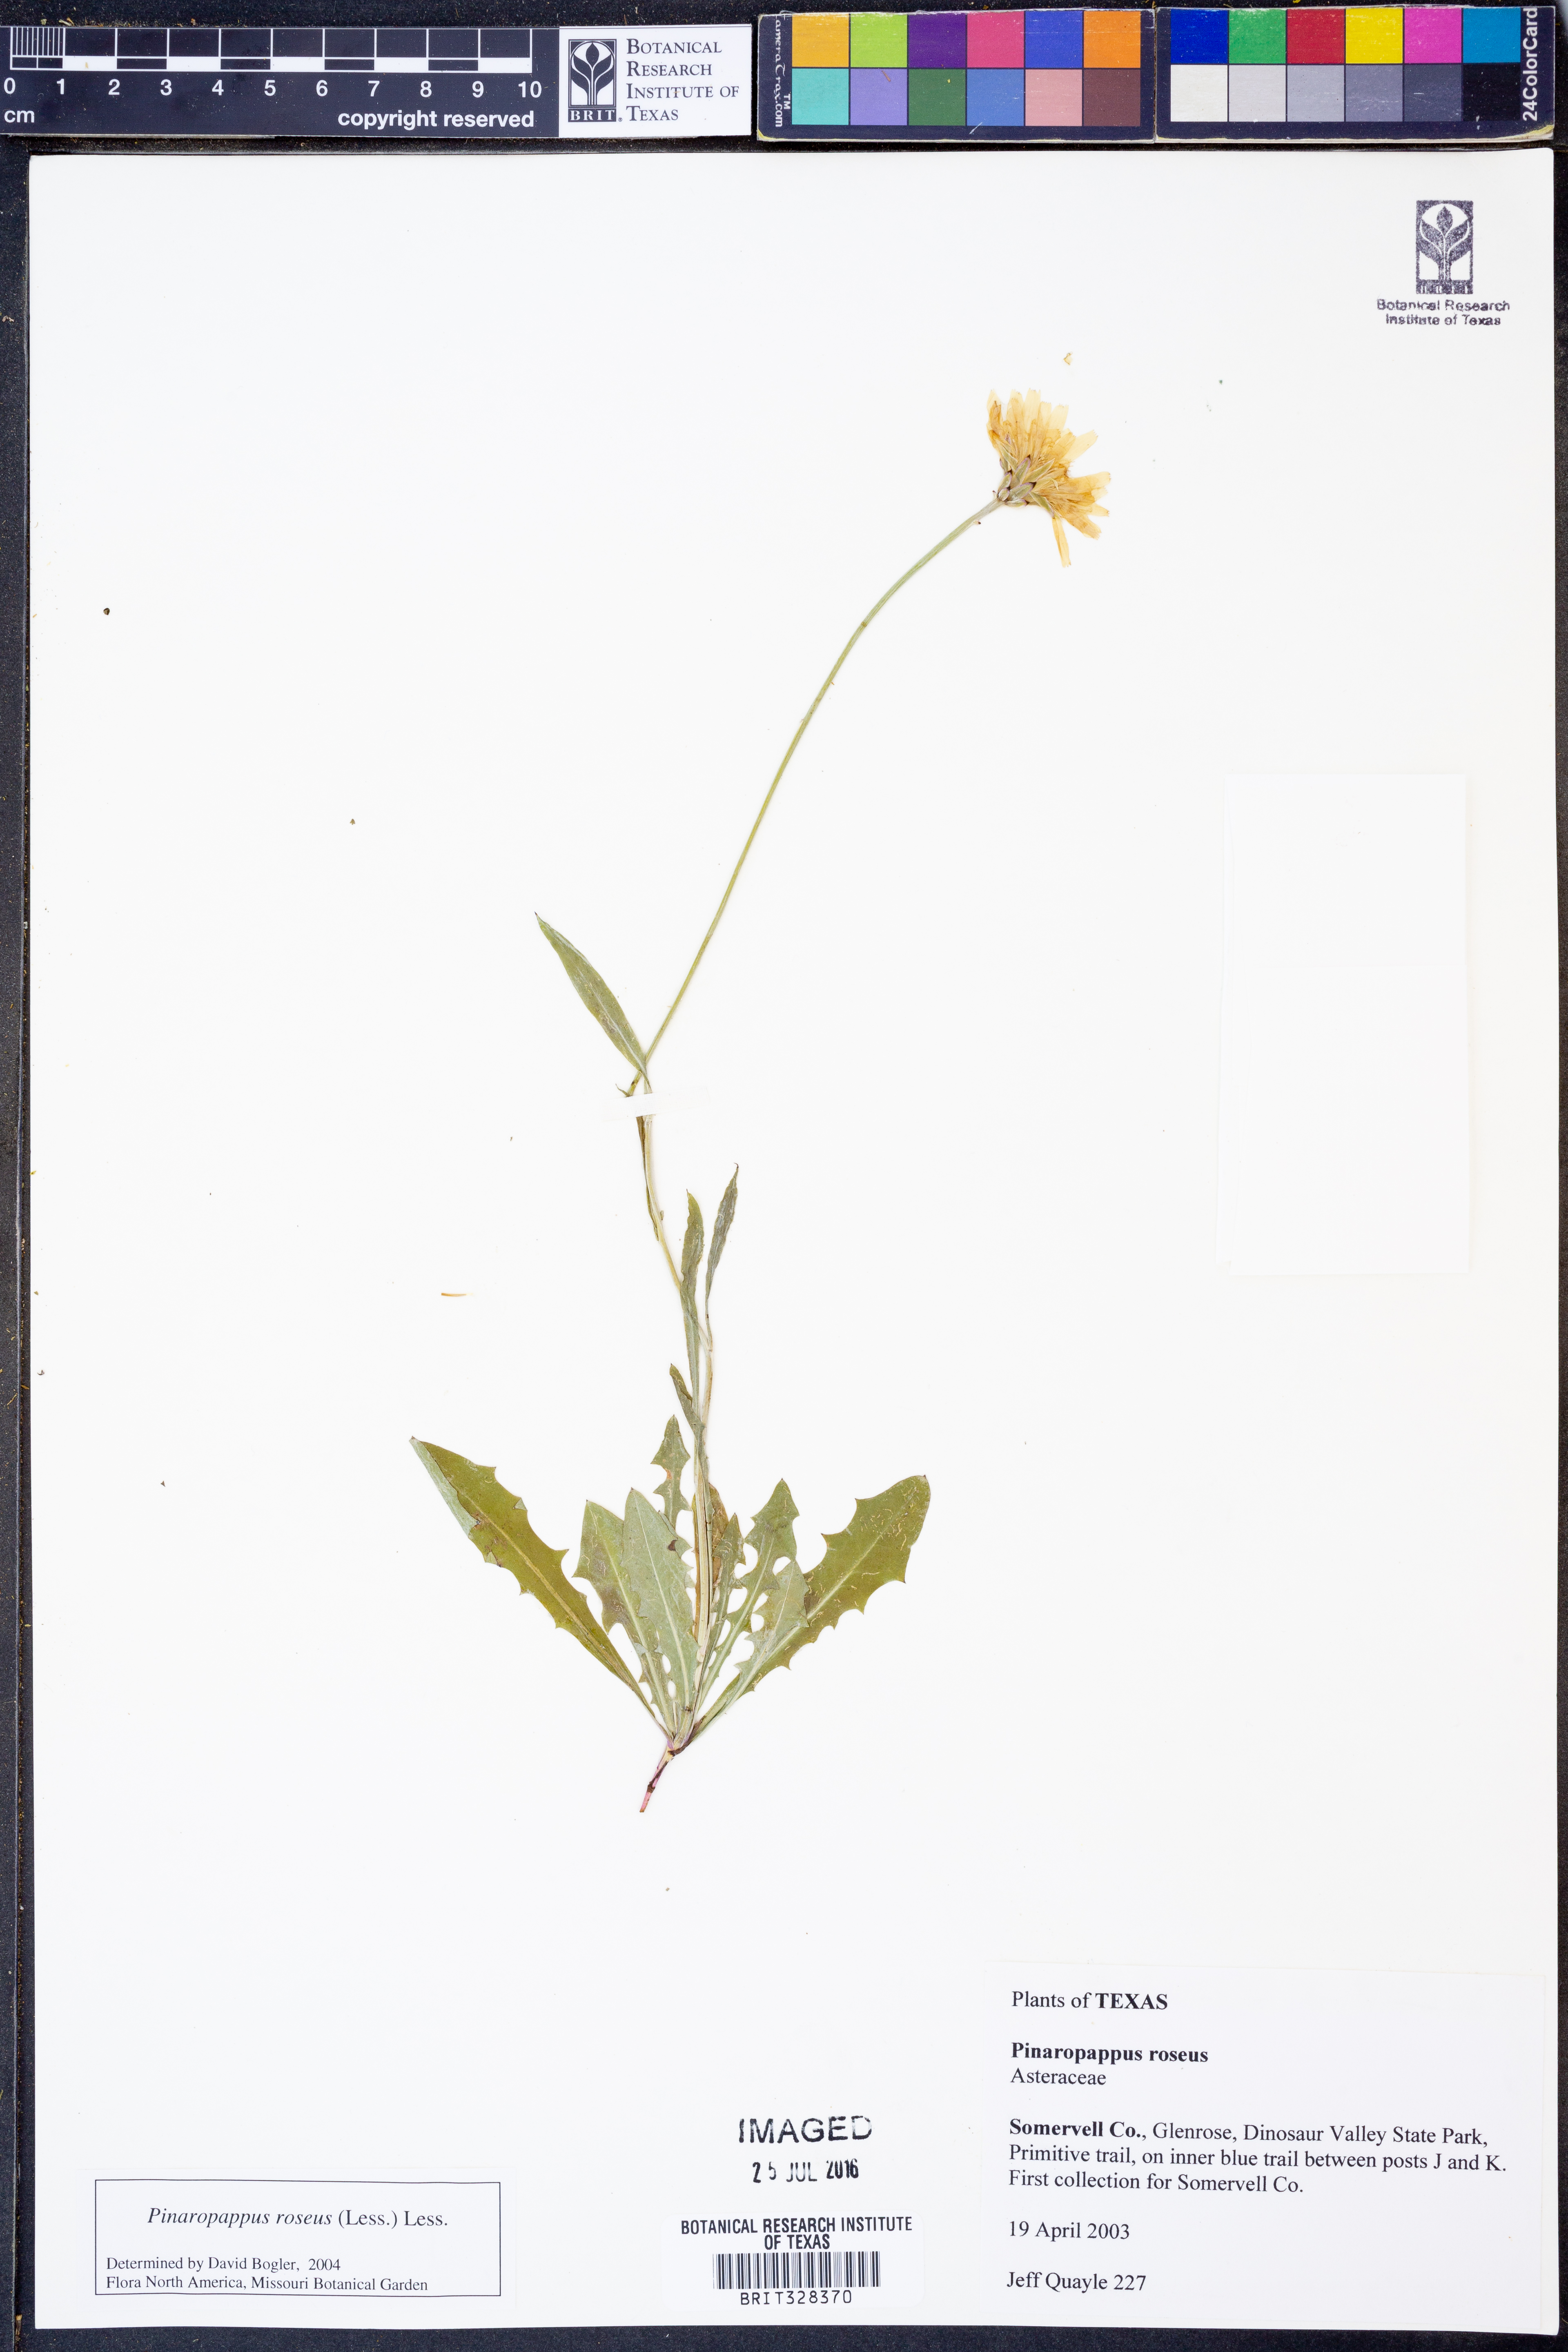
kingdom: Plantae
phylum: Tracheophyta
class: Magnoliopsida
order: Asterales
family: Asteraceae
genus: Pinaropappus
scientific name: Pinaropappus roseus
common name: Rock-lettuce
